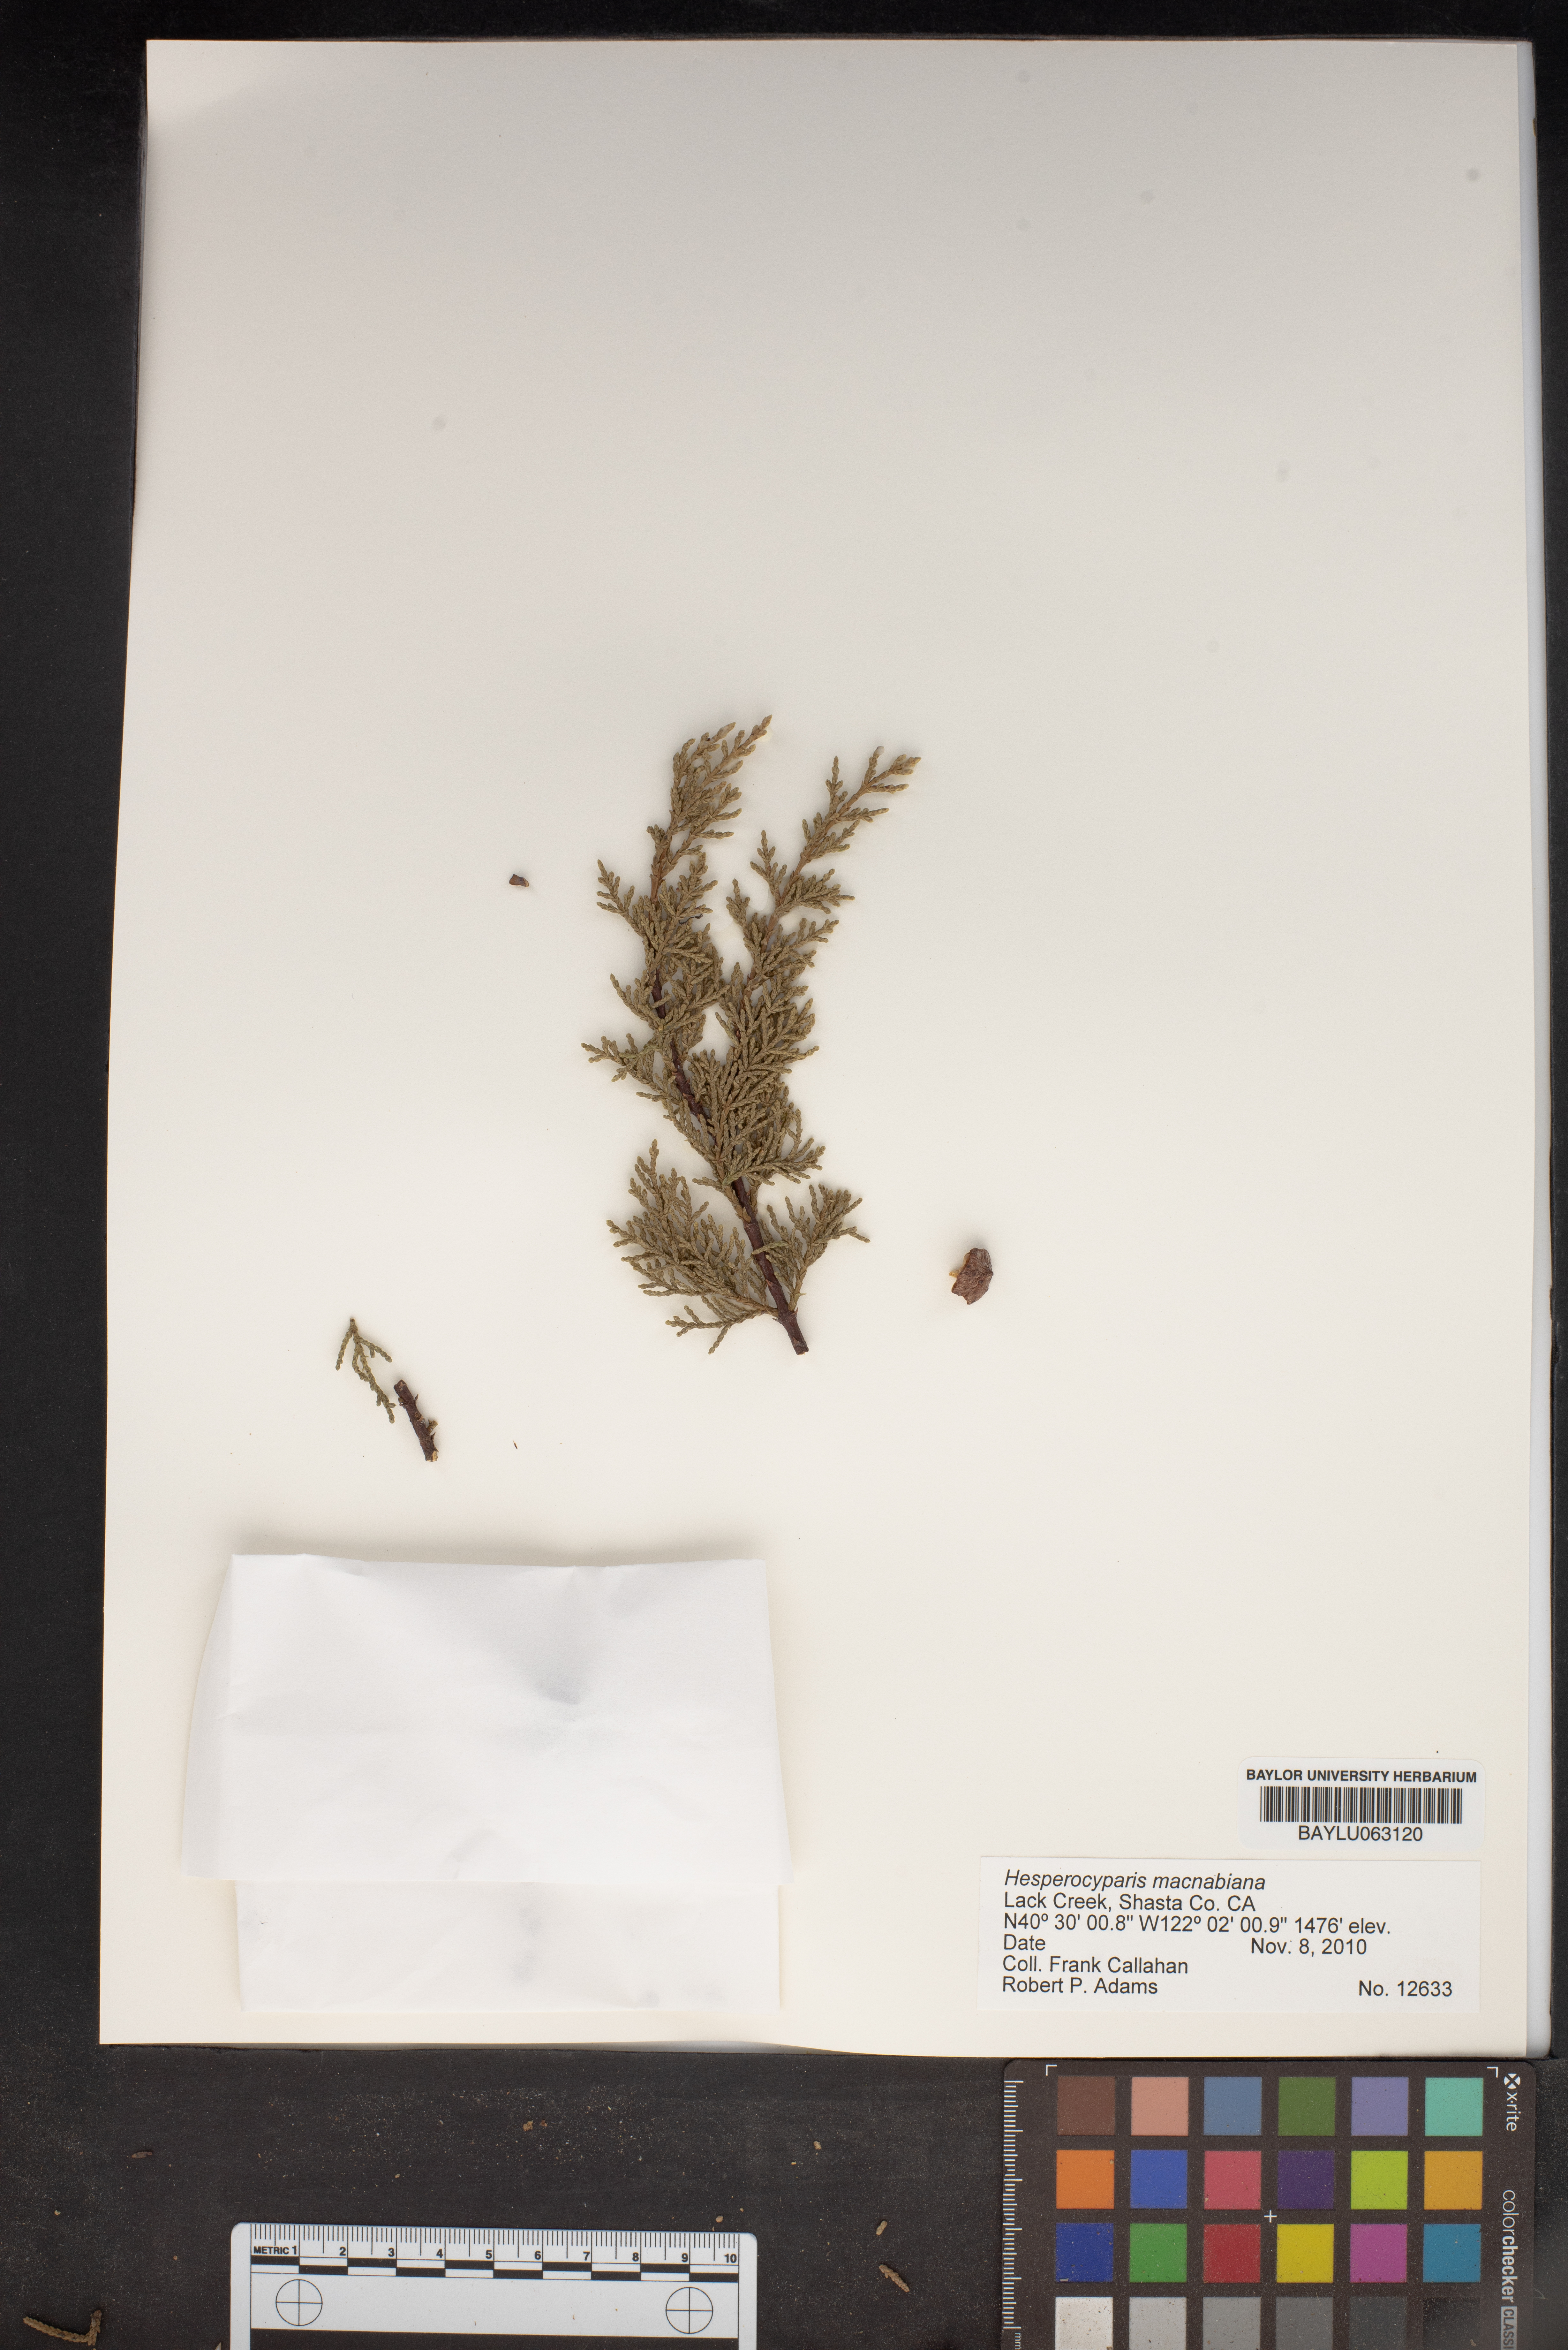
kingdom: Plantae
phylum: Tracheophyta
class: Pinopsida
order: Pinales
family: Cupressaceae
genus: Cupressus
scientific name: Cupressus macnabiana bis
